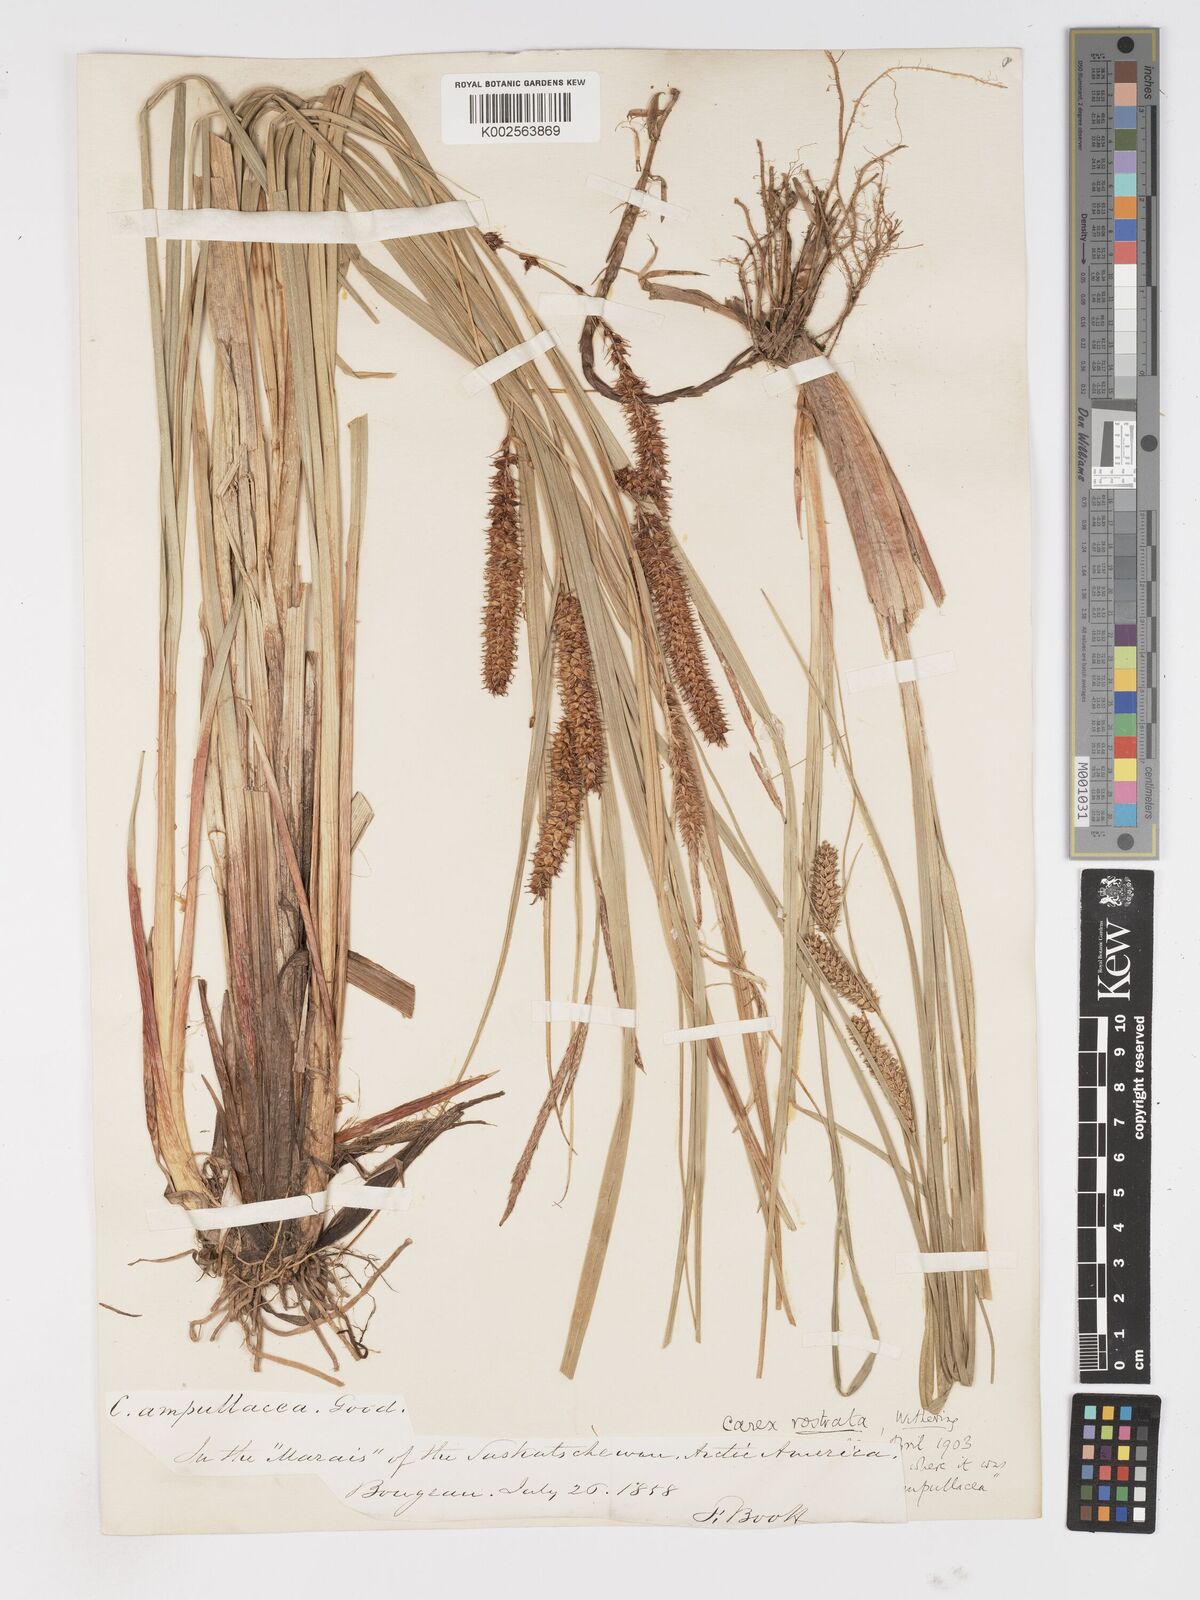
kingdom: Plantae
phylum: Tracheophyta
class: Liliopsida
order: Poales
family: Cyperaceae
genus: Carex
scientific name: Carex rostrata
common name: Bottle sedge
